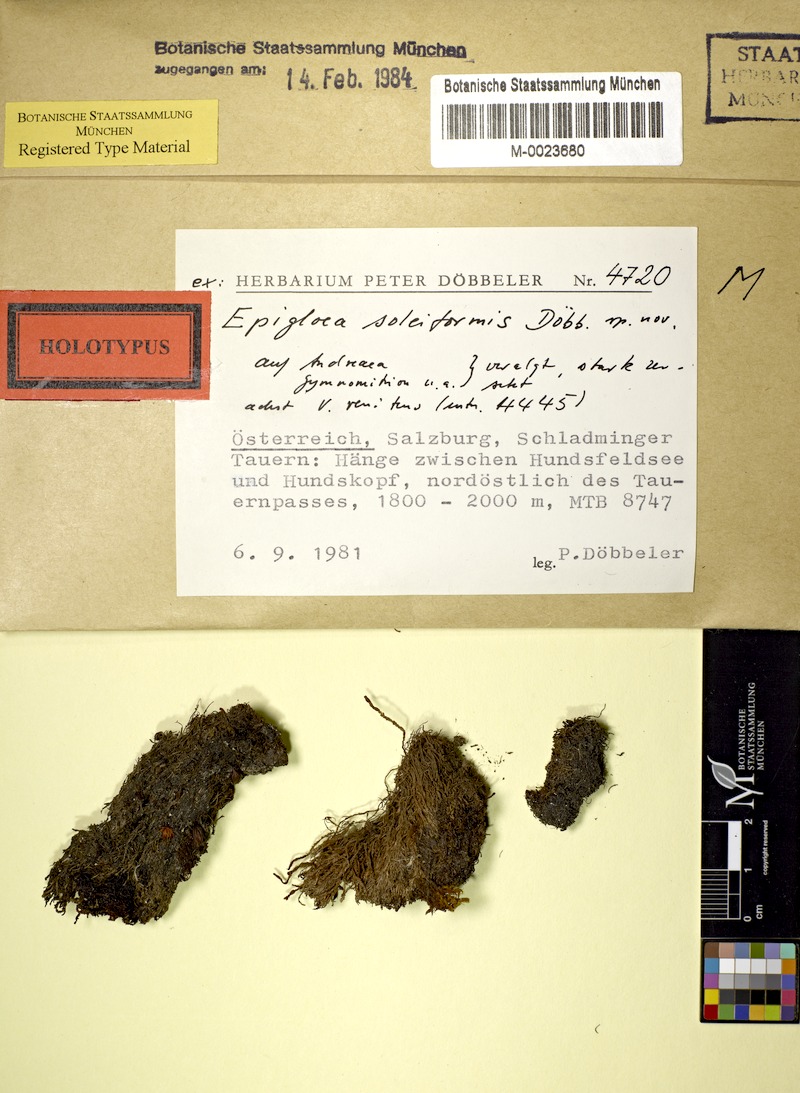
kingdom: Fungi
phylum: Ascomycota
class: Lecanoromycetes
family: Epigloeaceae
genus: Epigloea
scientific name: Epigloea soleiformis
